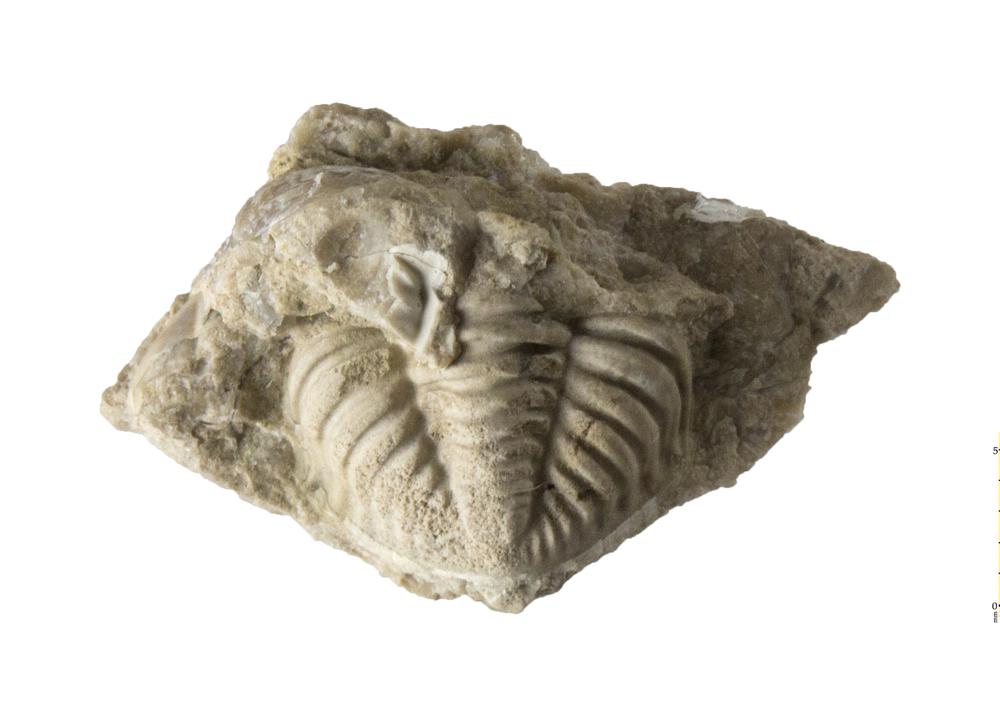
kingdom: Animalia
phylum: Arthropoda
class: Trilobita
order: Phacopida
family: Phacopidae
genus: Phacops
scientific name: Phacops
